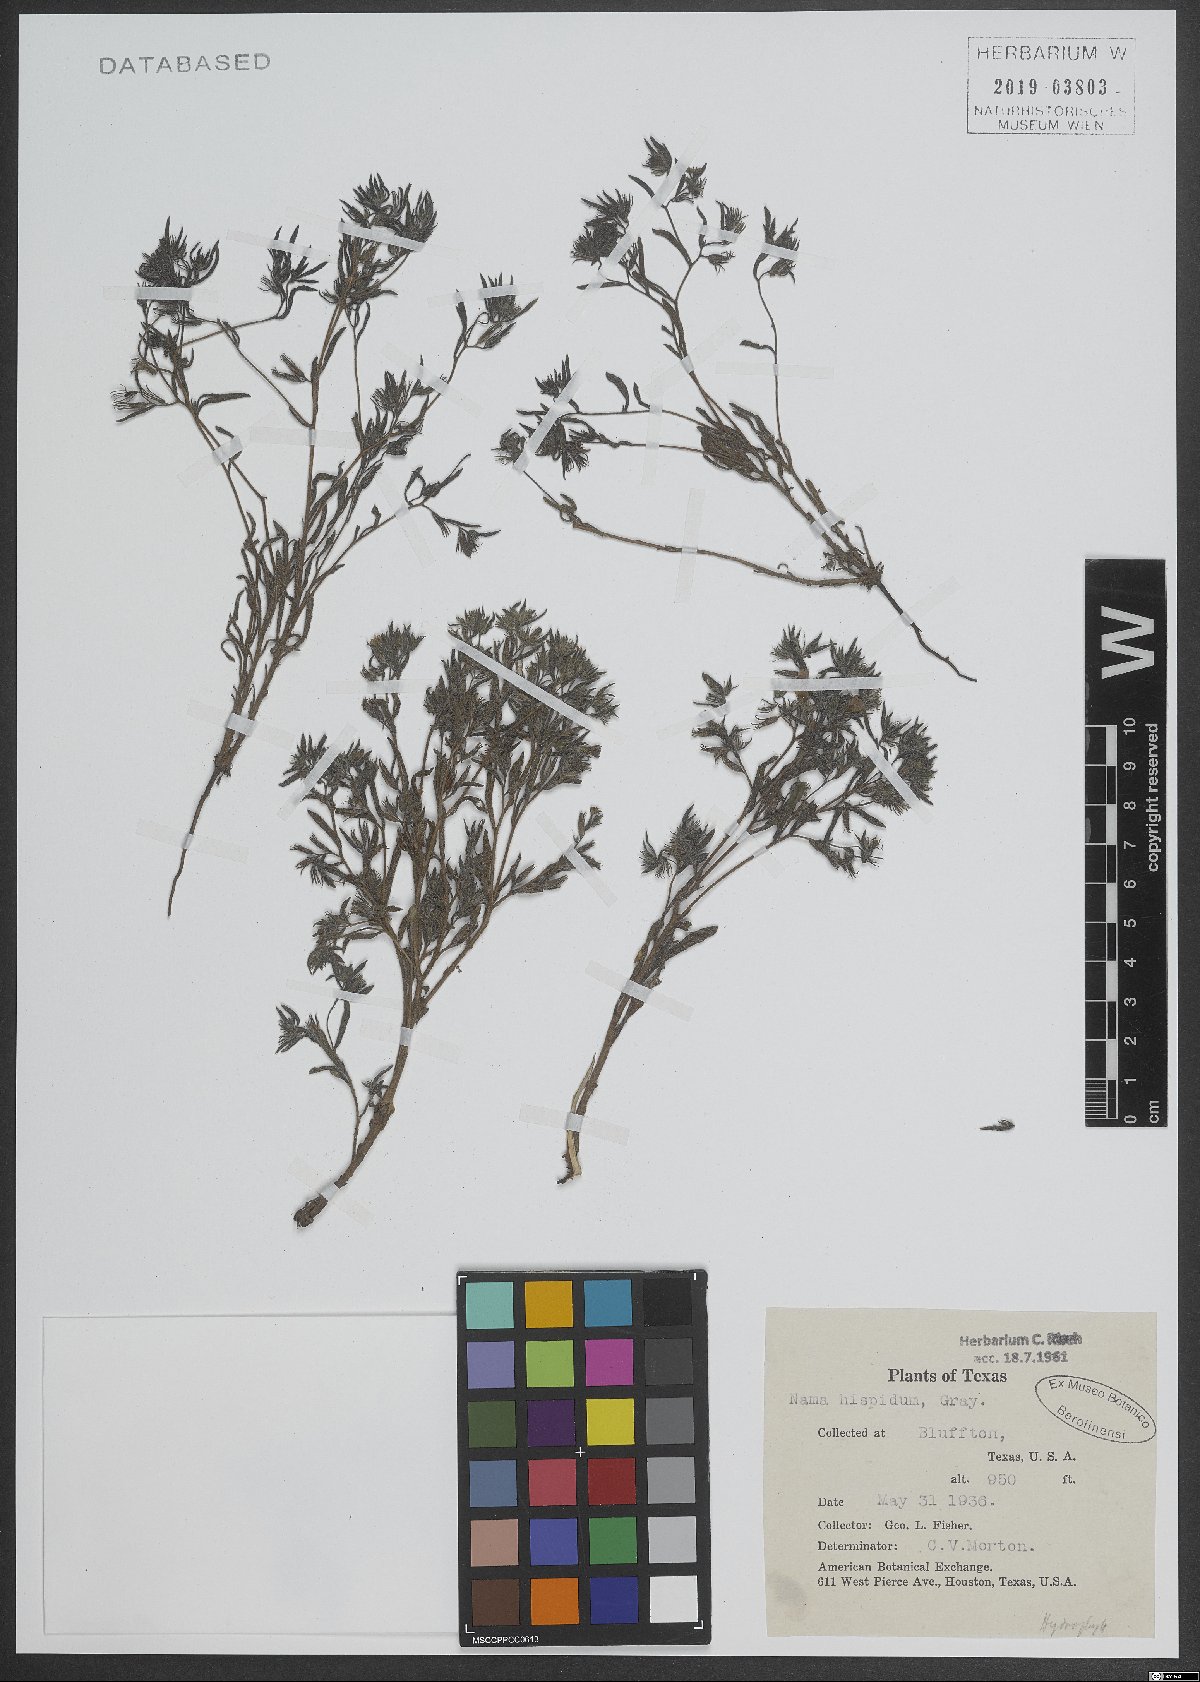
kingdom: Plantae
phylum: Tracheophyta
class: Magnoliopsida
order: Boraginales
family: Namaceae
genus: Nama
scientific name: Nama hispida
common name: Bristly nama
